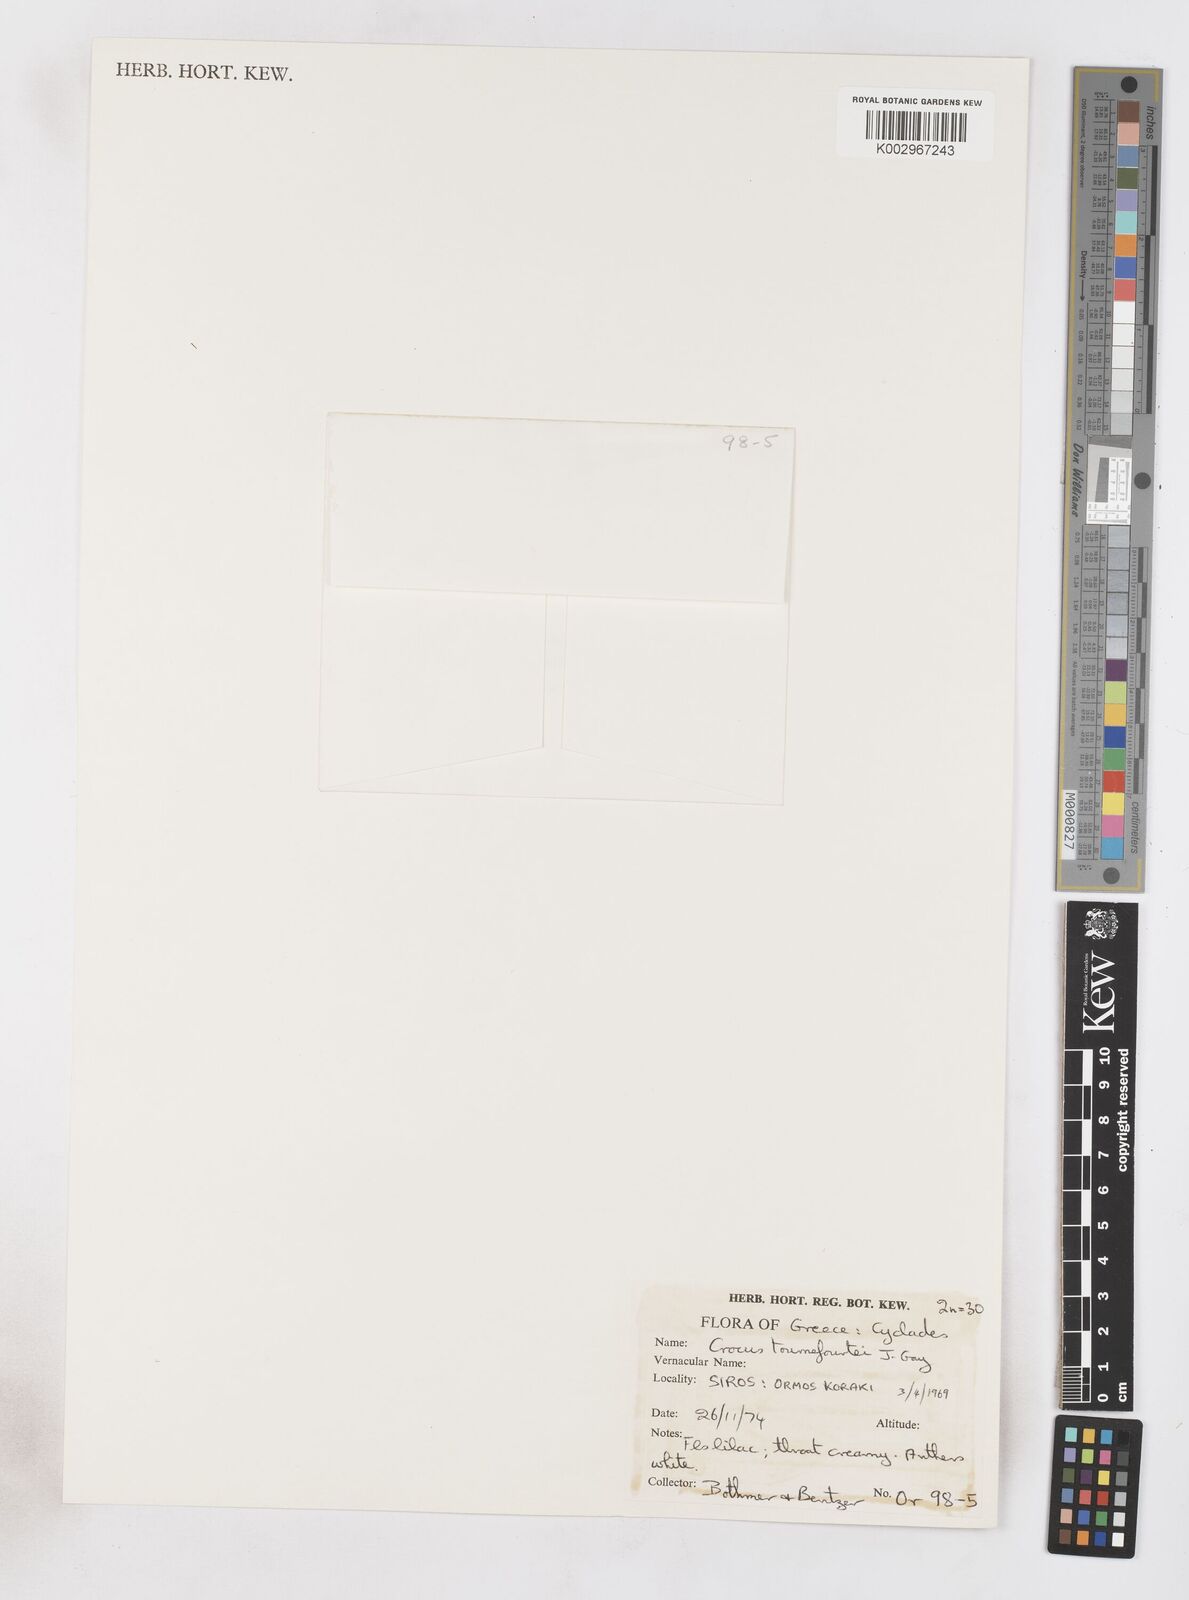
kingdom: Plantae
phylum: Tracheophyta
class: Liliopsida
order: Asparagales
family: Iridaceae
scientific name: Iridaceae
